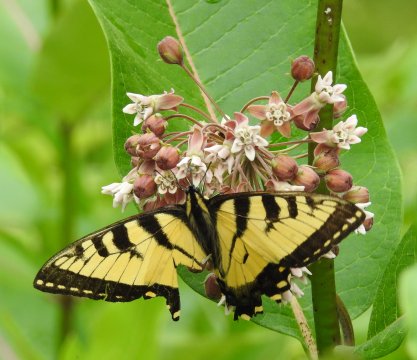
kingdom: Animalia
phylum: Arthropoda
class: Insecta
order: Lepidoptera
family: Papilionidae
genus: Pterourus
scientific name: Pterourus canadensis
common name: Canadian Tiger Swallowtail
